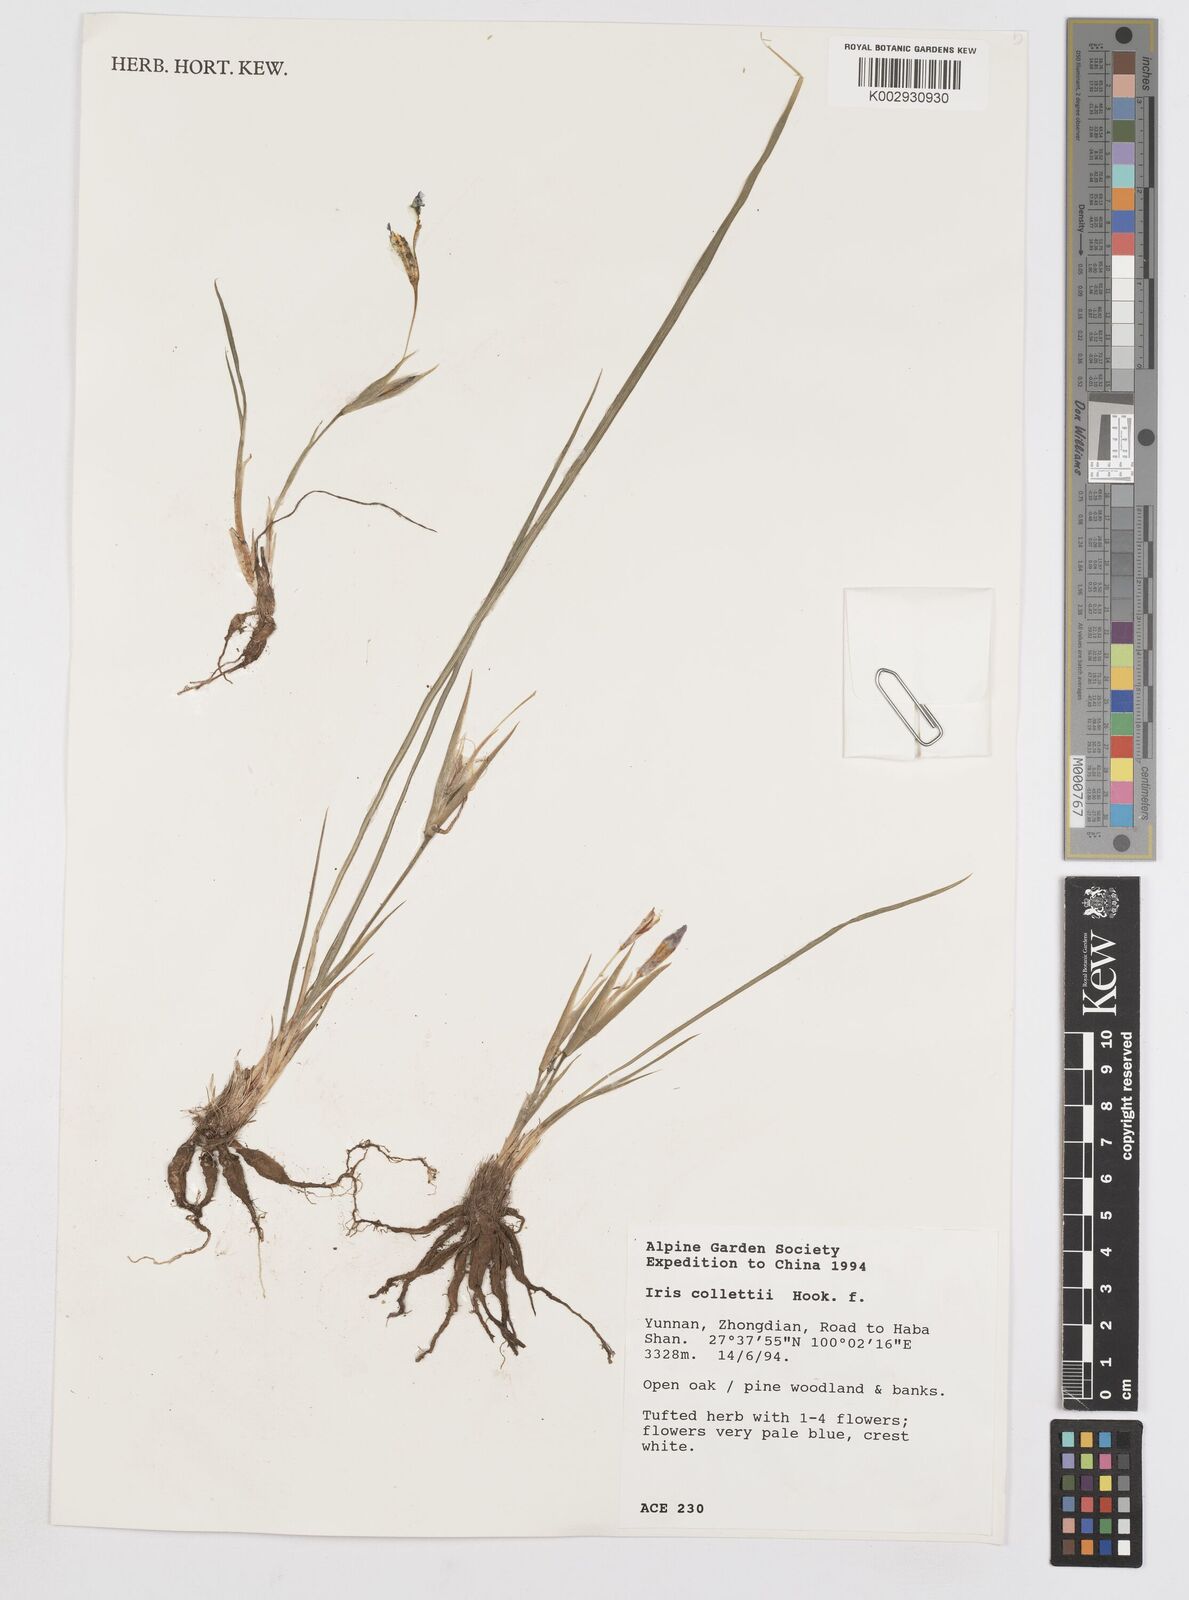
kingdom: Plantae
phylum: Tracheophyta
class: Liliopsida
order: Asparagales
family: Iridaceae
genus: Iris
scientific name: Iris collettii
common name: Plateau iris
